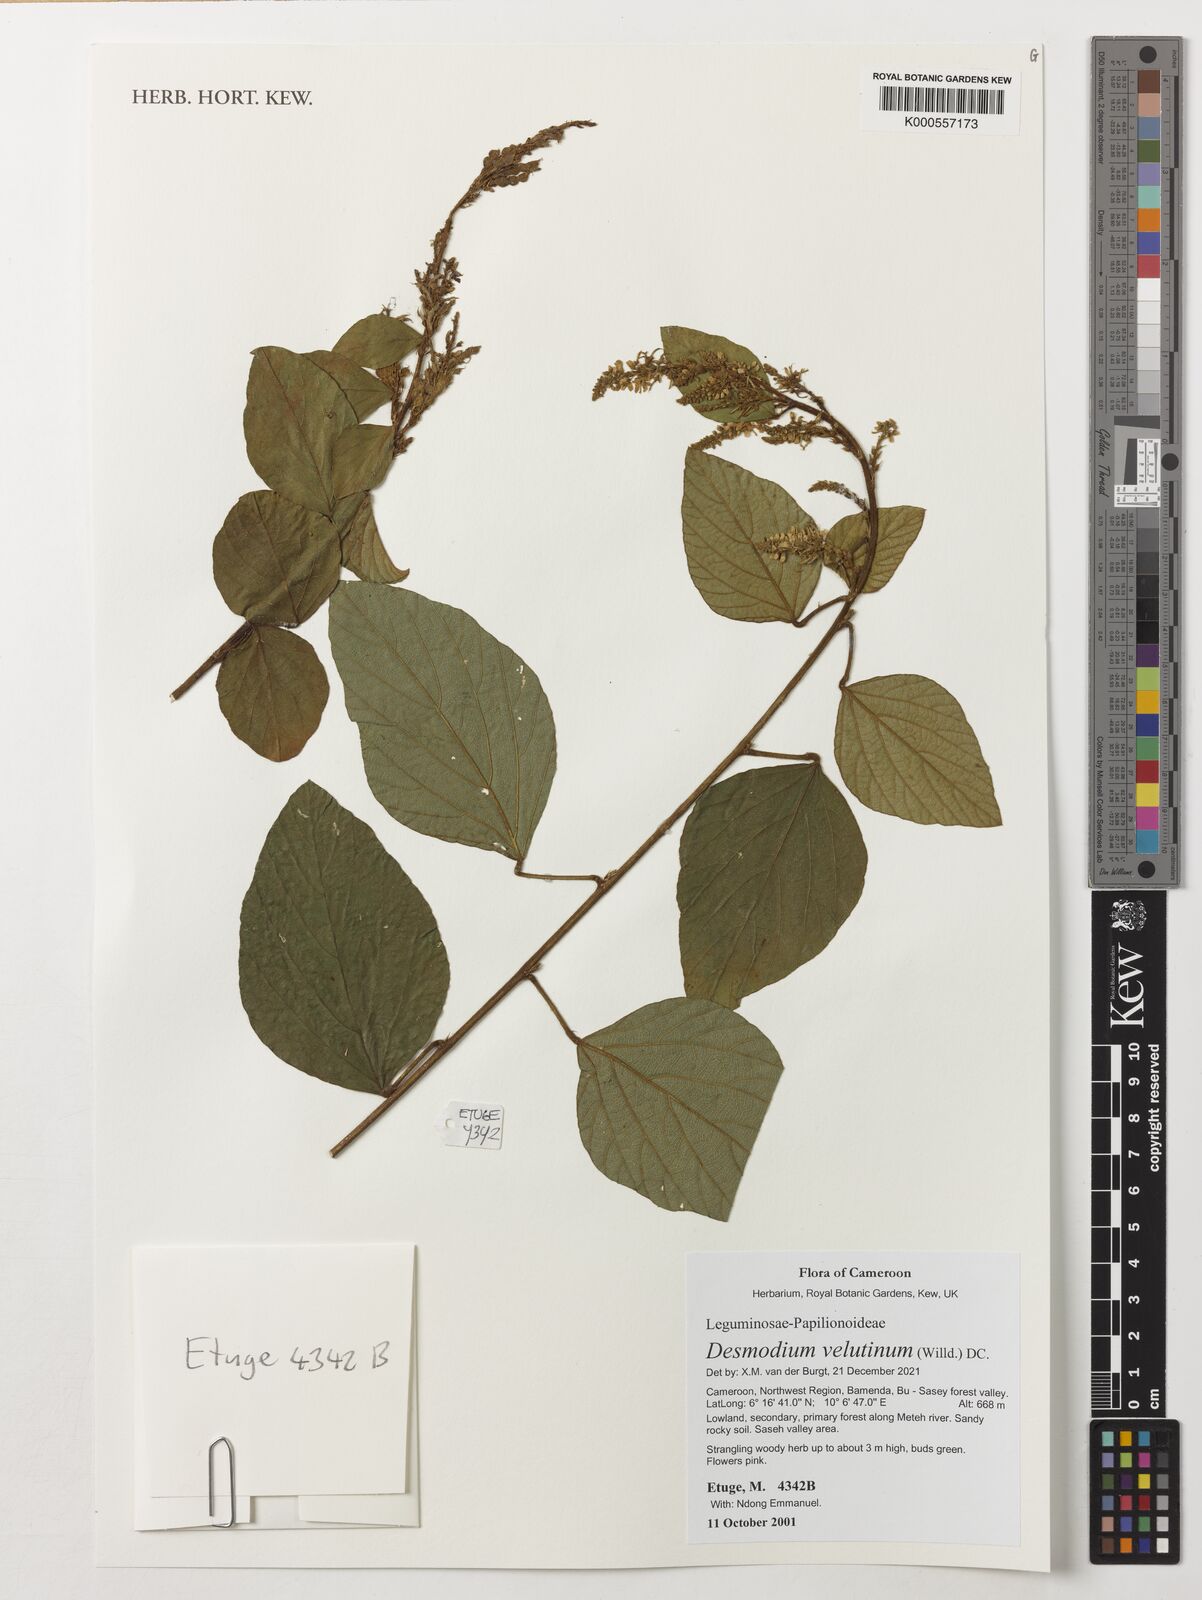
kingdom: Plantae
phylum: Tracheophyta
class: Magnoliopsida
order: Fabales
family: Fabaceae
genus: Polhillides
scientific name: Polhillides velutina
